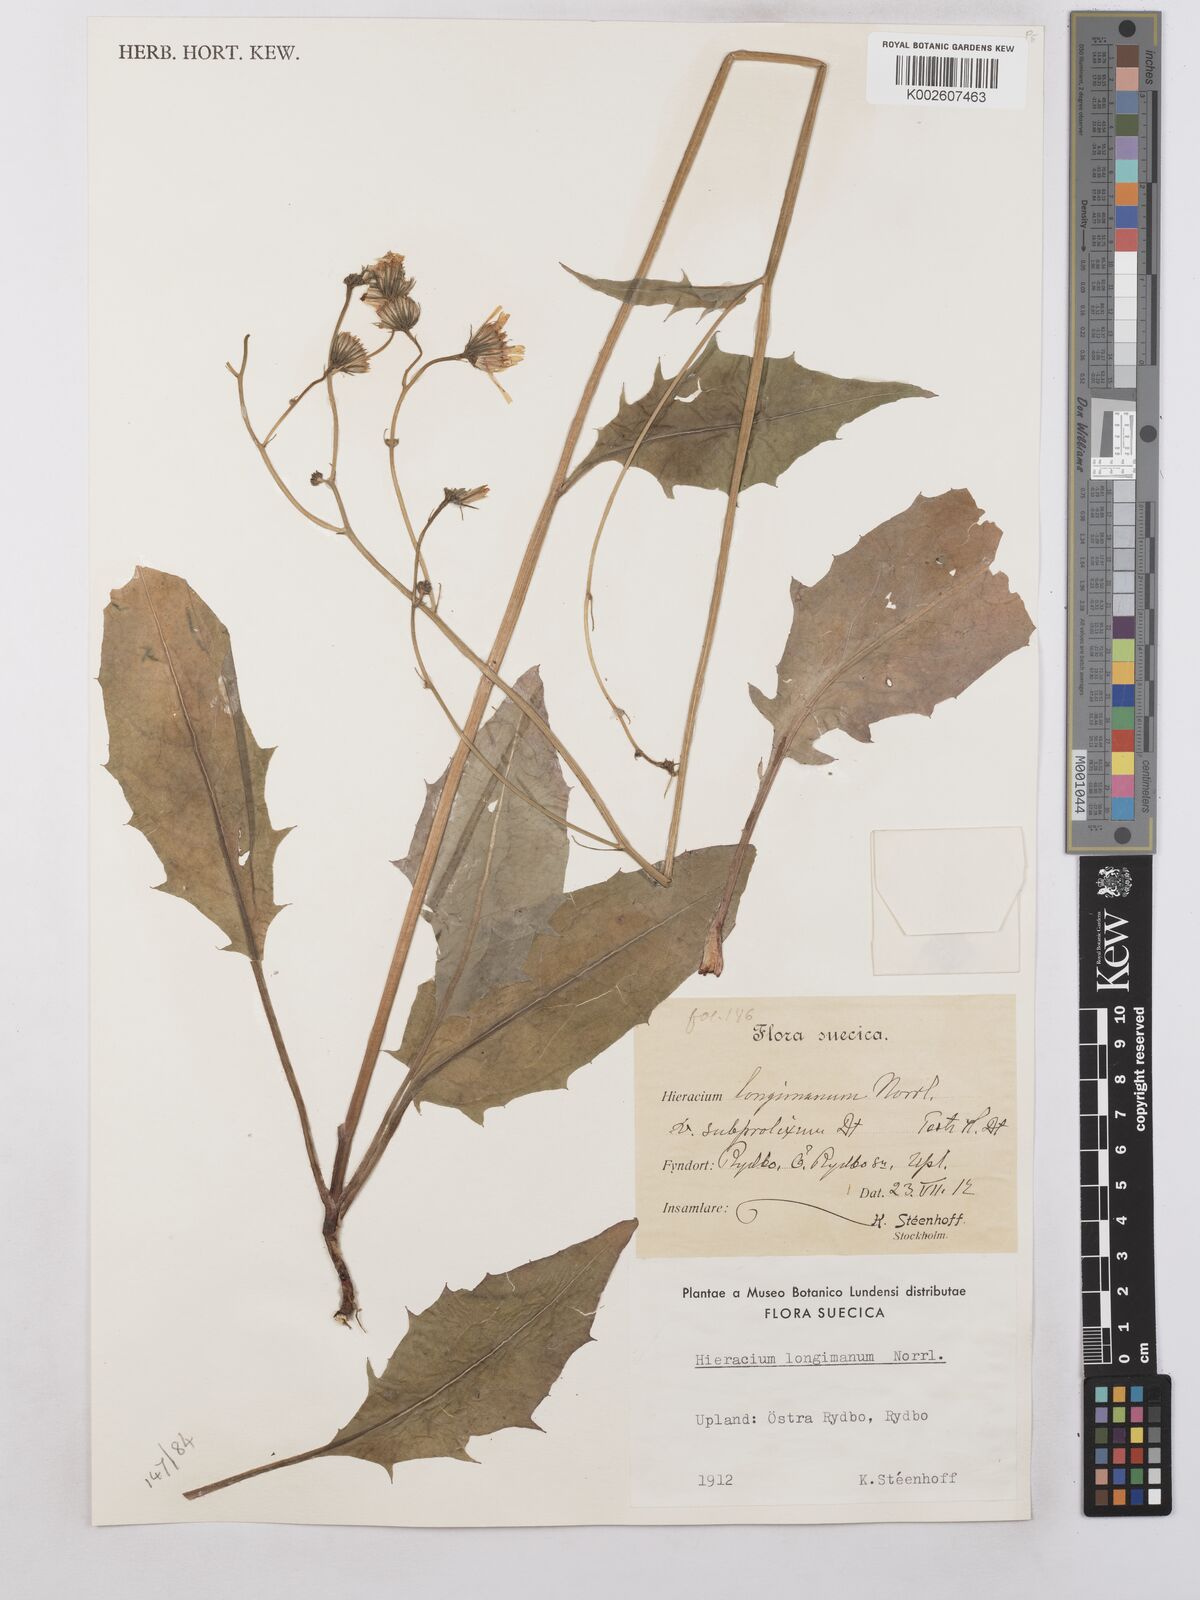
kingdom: Plantae
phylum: Tracheophyta
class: Magnoliopsida
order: Asterales
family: Asteraceae
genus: Hieracium
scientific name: Hieracium caesium
